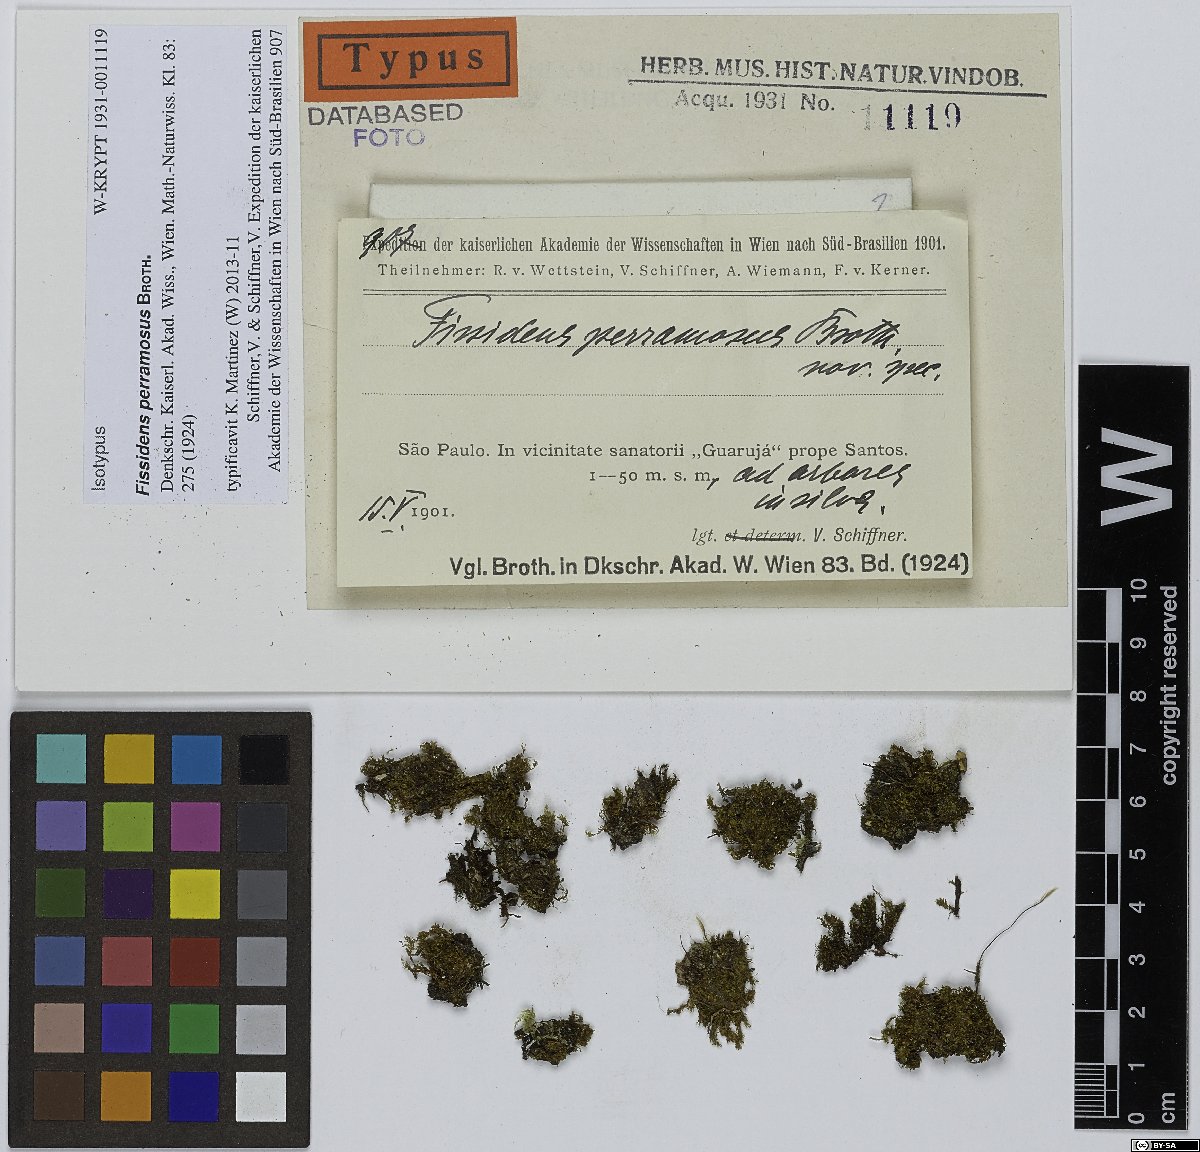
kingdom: Plantae
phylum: Bryophyta
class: Bryopsida
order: Dicranales
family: Fissidentaceae
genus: Fissidens
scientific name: Fissidens radicans
